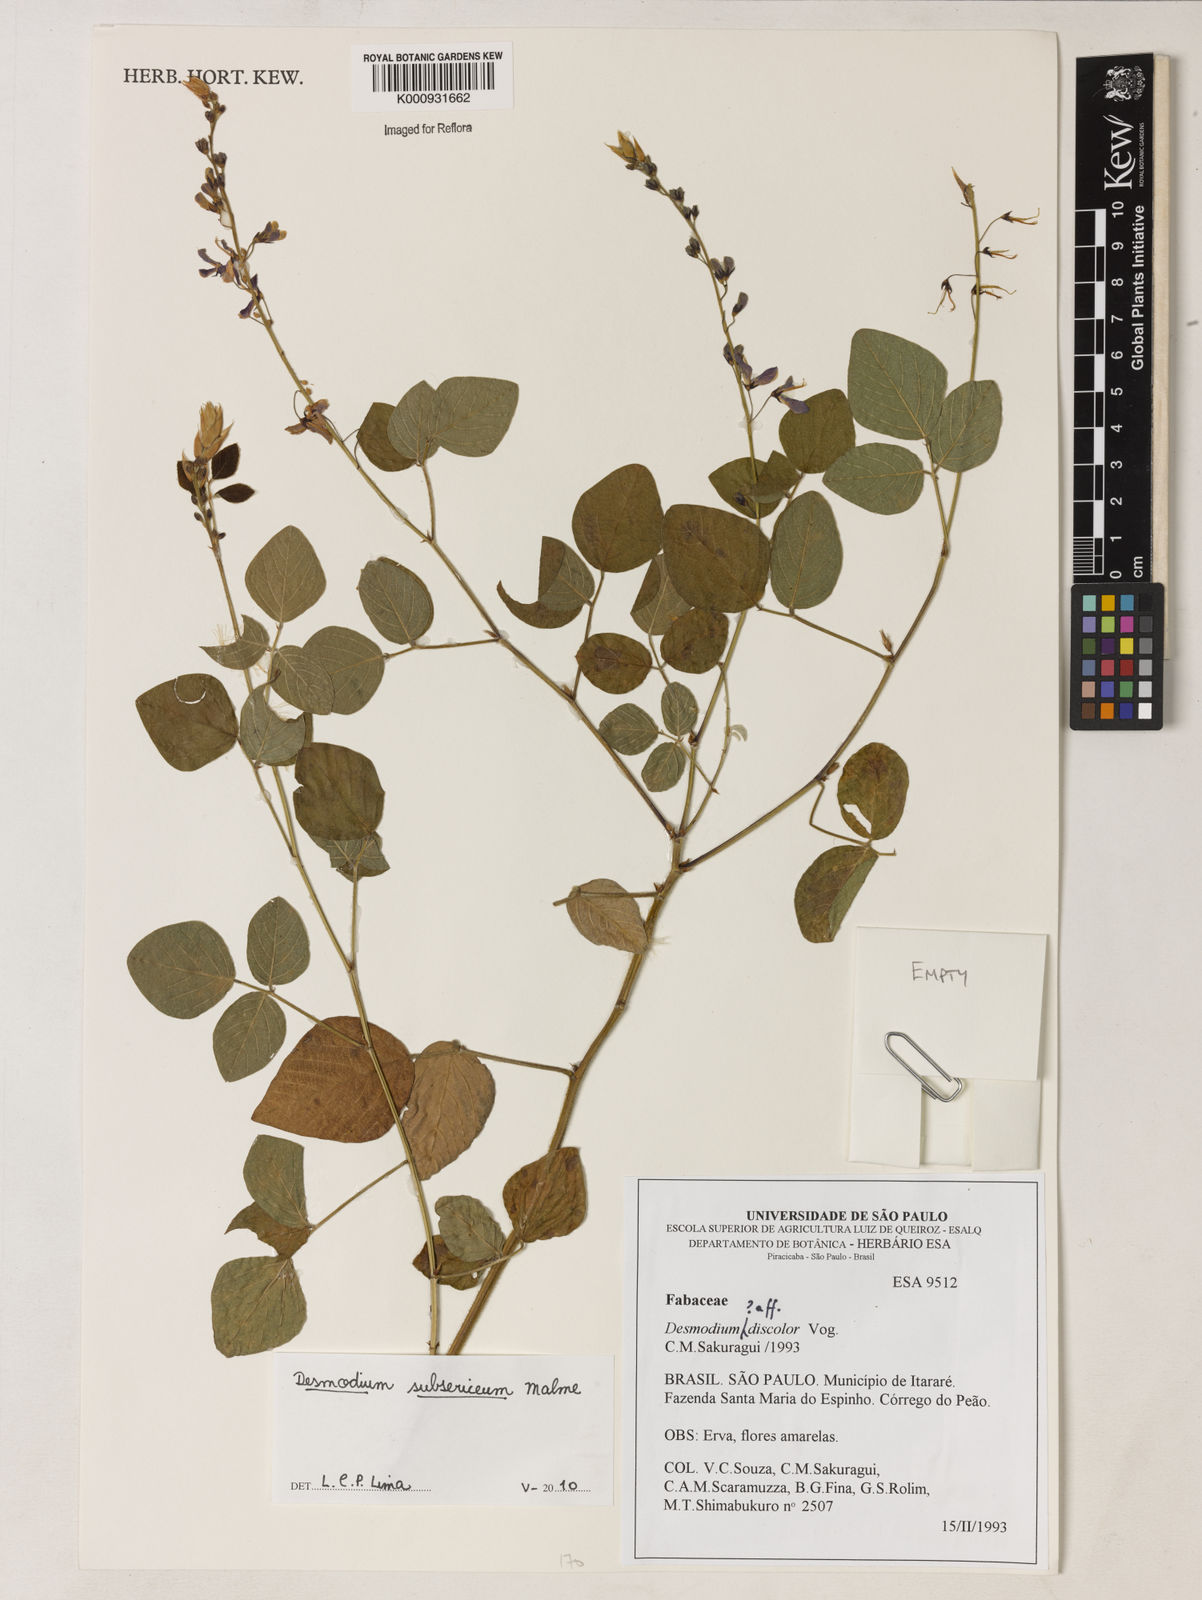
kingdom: Plantae
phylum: Tracheophyta
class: Magnoliopsida
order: Fabales
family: Fabaceae
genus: Desmodium
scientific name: Desmodium subsericeum
